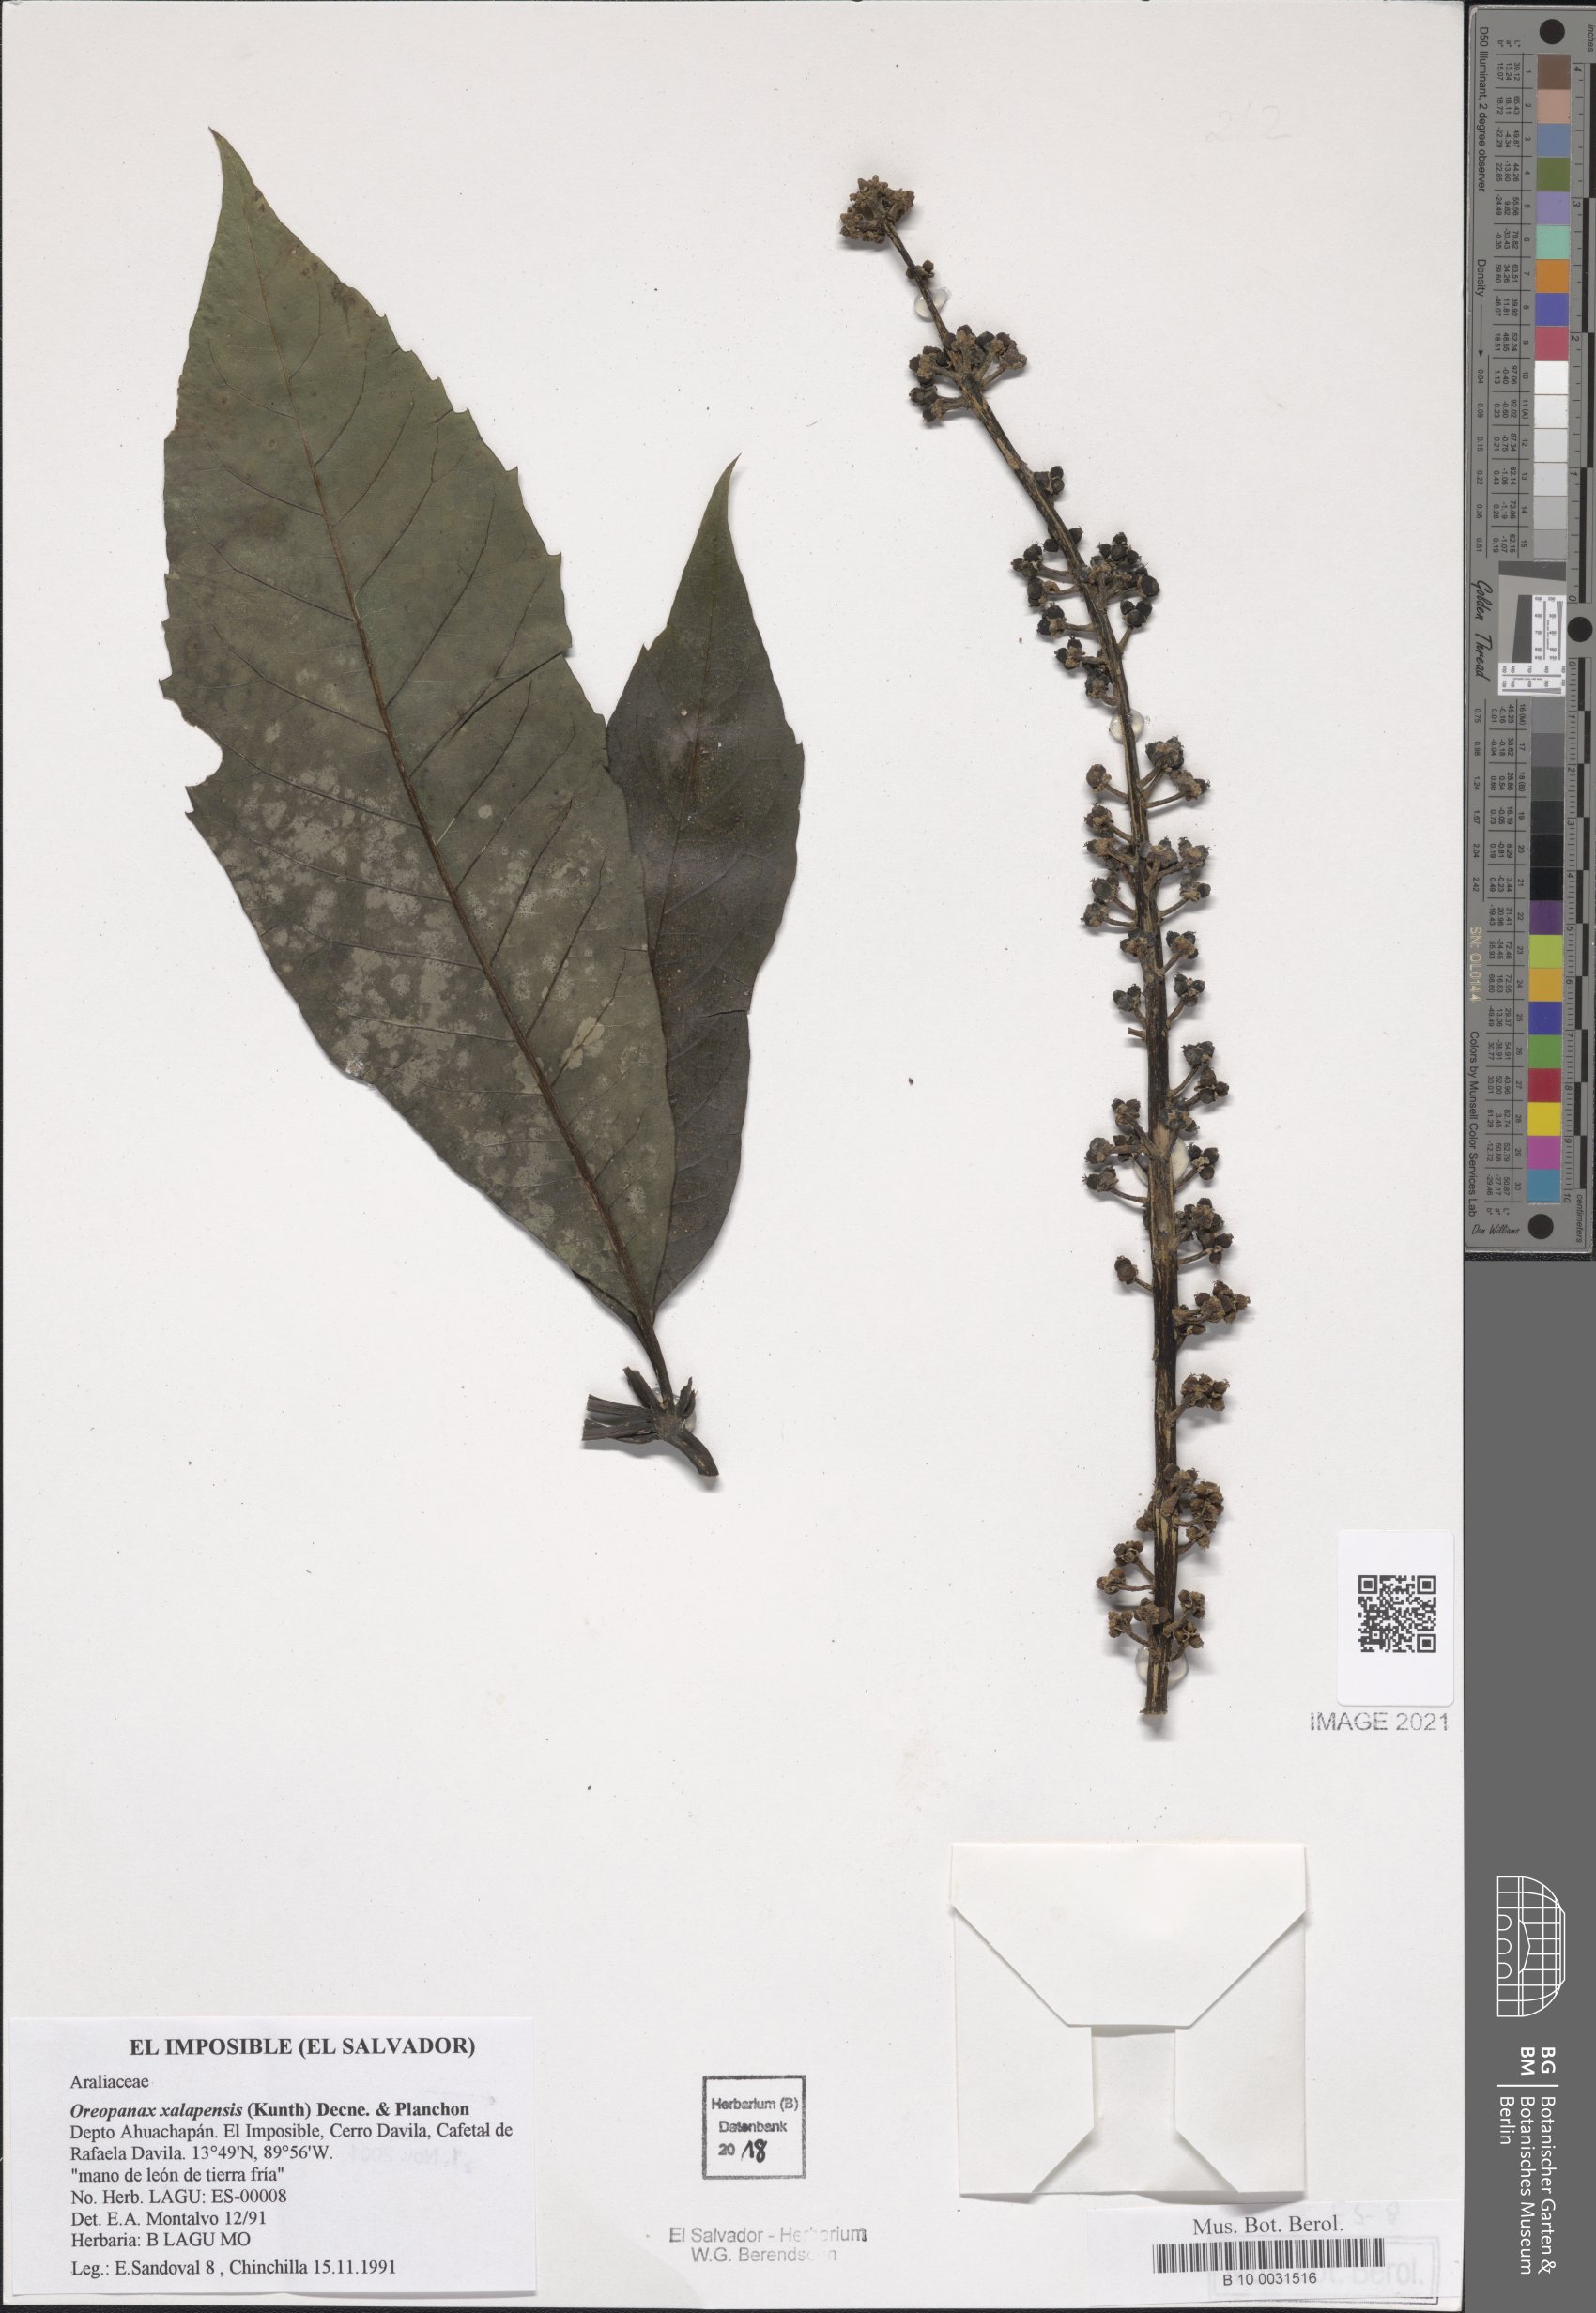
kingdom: Plantae
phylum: Tracheophyta
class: Magnoliopsida
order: Apiales
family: Araliaceae
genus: Oreopanax
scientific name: Oreopanax xalapensis
